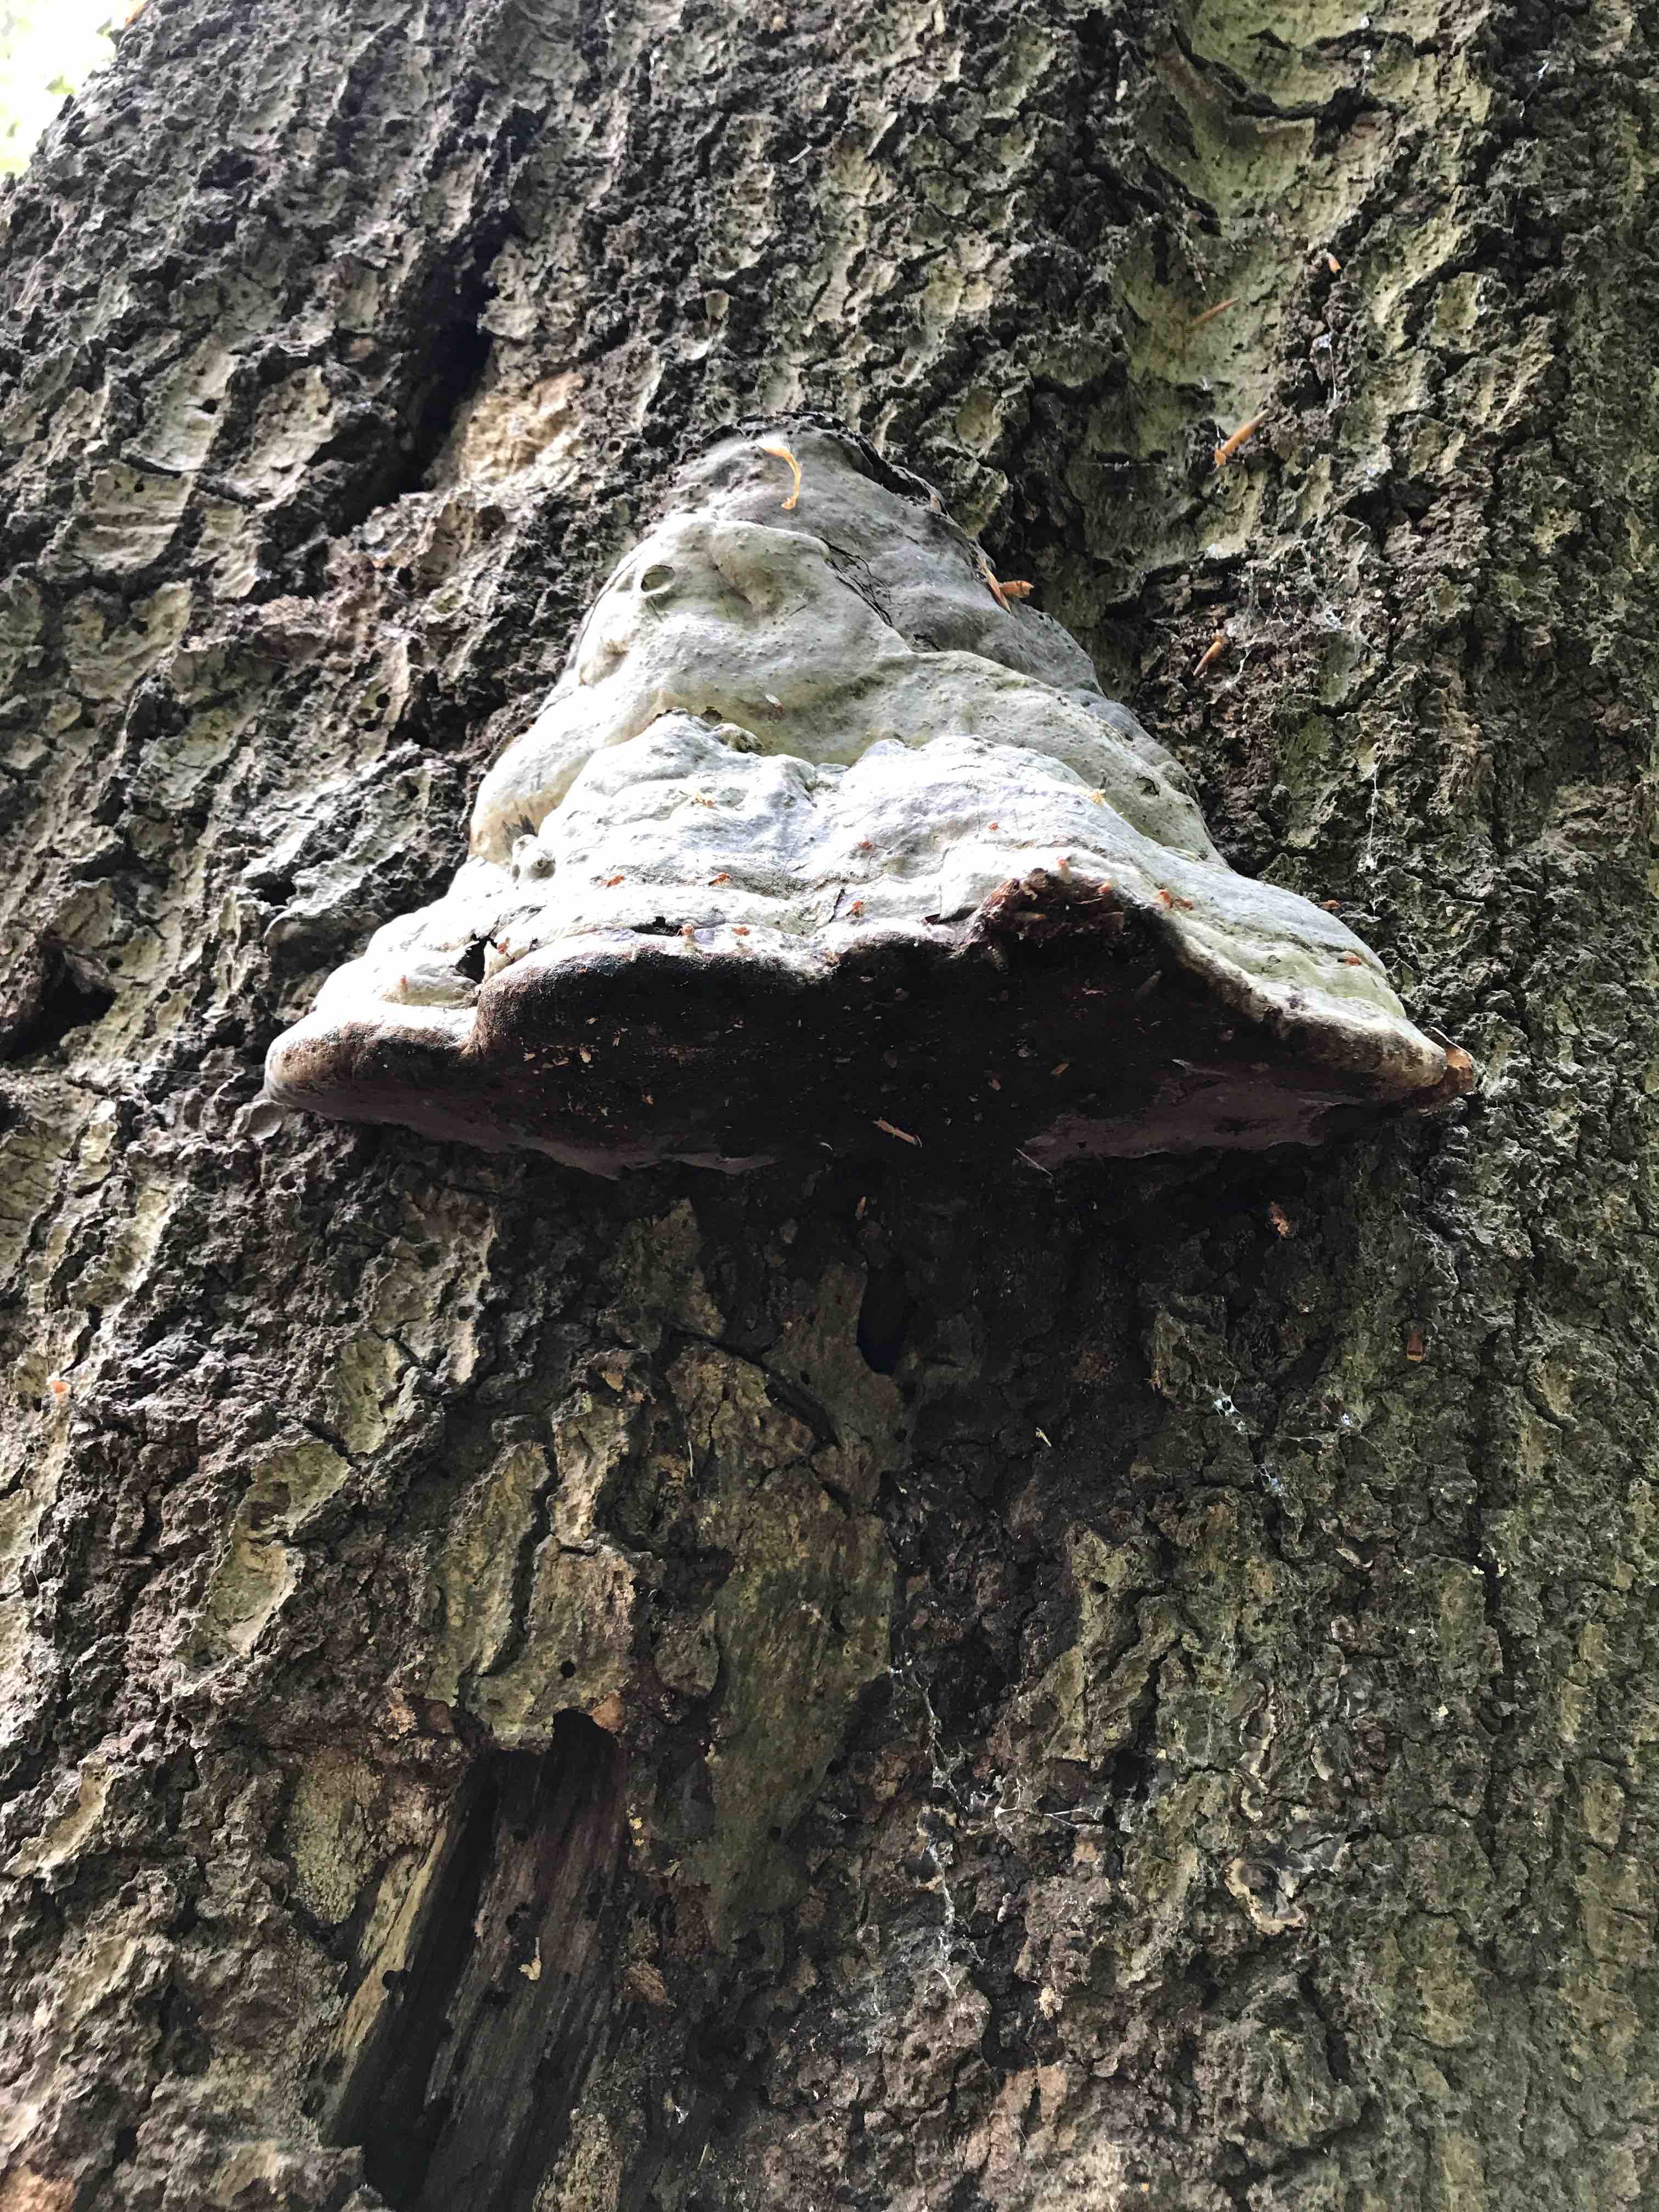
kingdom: Fungi
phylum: Basidiomycota
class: Agaricomycetes
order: Polyporales
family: Polyporaceae
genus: Fomes
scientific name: Fomes fomentarius
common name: tøndersvamp
